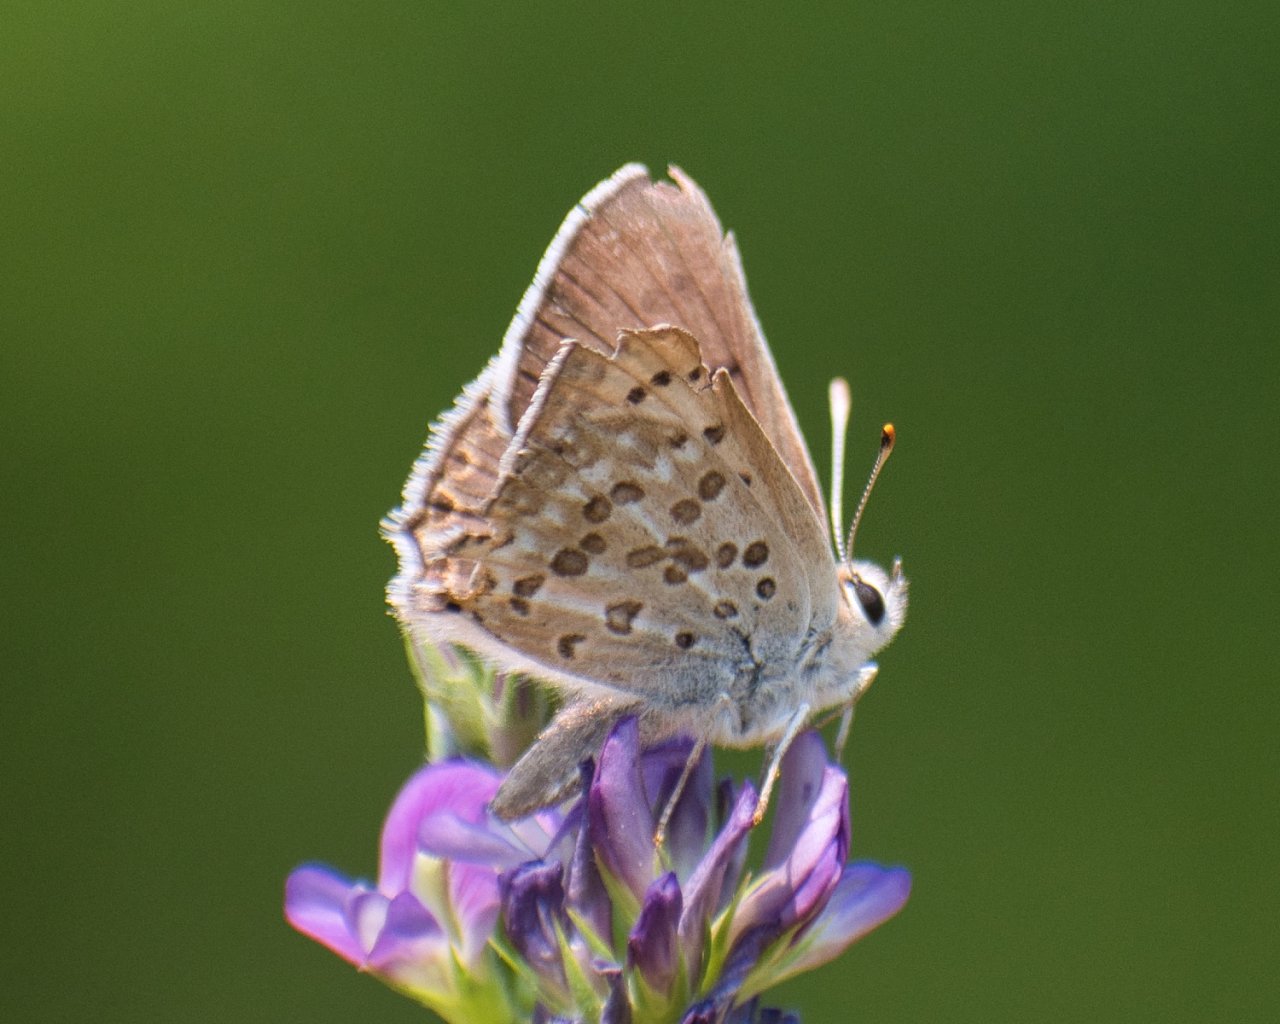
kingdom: Animalia
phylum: Arthropoda
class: Insecta
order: Lepidoptera
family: Lycaenidae
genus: Lycaena
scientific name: Lycaena editha
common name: Edith's Copper
